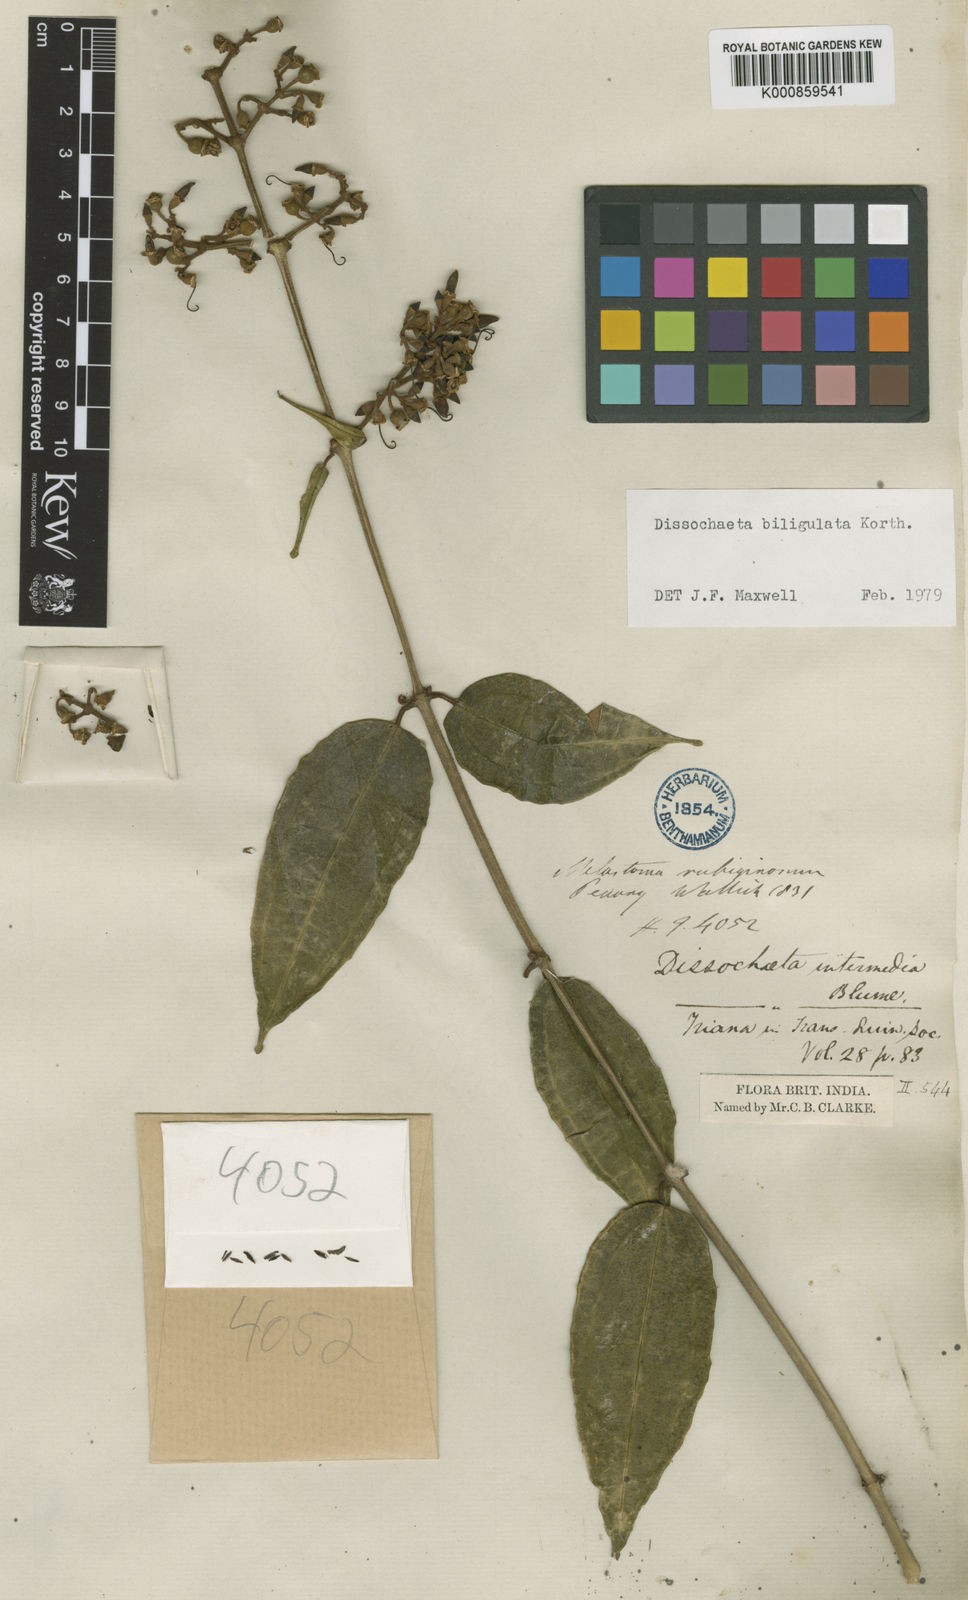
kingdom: Plantae
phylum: Tracheophyta
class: Magnoliopsida
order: Myrtales
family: Melastomataceae
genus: Dissochaeta
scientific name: Dissochaeta biligulata
